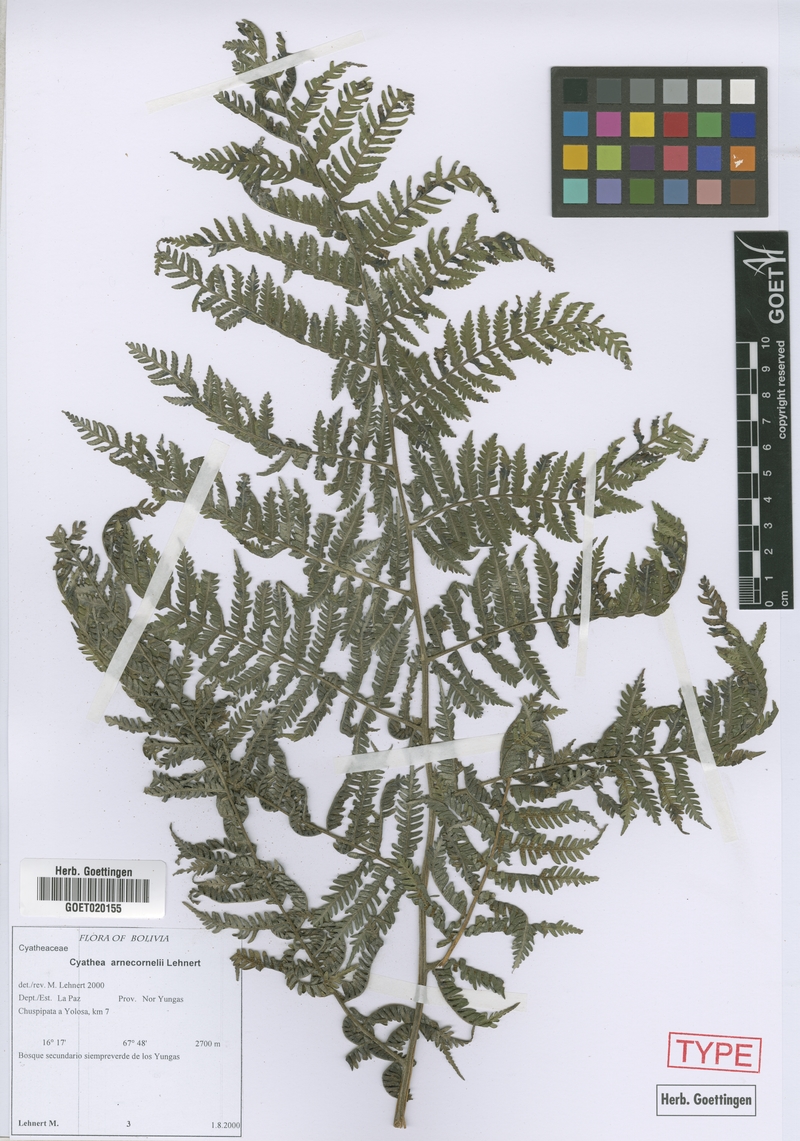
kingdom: Plantae
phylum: Tracheophyta
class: Polypodiopsida
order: Cyatheales
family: Cyatheaceae
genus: Cyathea
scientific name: Cyathea arnecornelii
